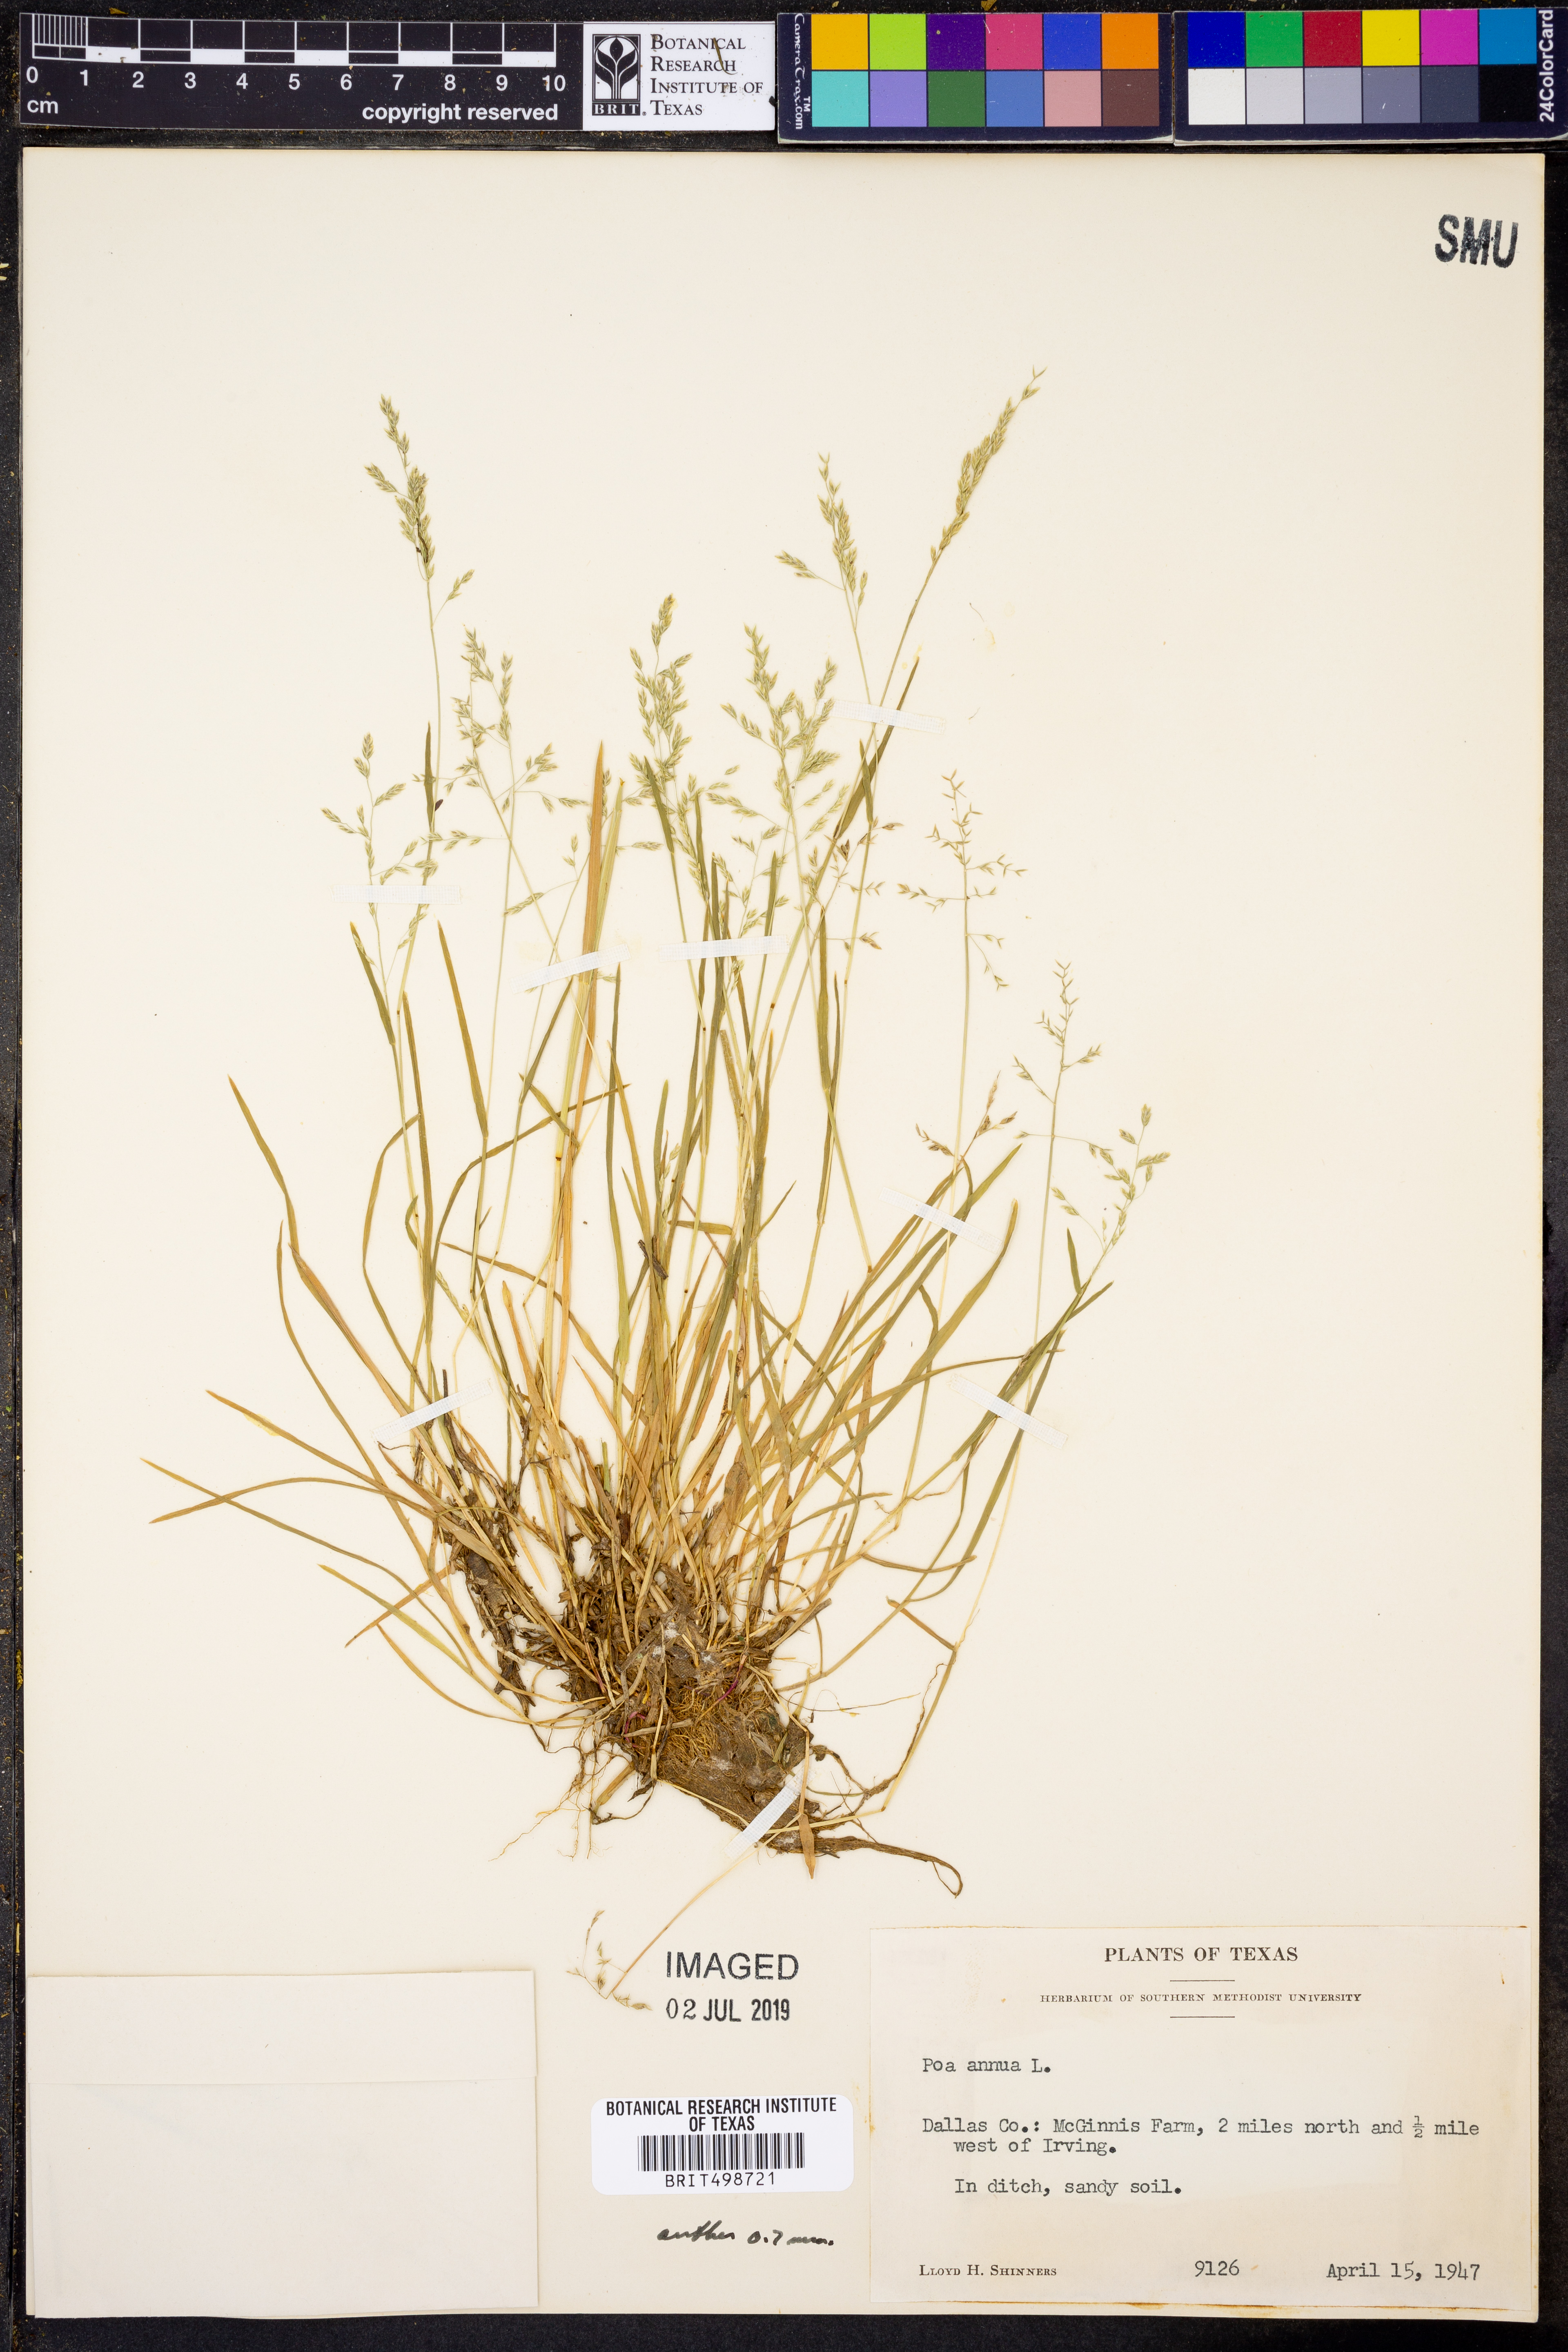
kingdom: Plantae
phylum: Tracheophyta
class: Liliopsida
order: Poales
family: Poaceae
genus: Poa
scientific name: Poa annua
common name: Annual bluegrass
